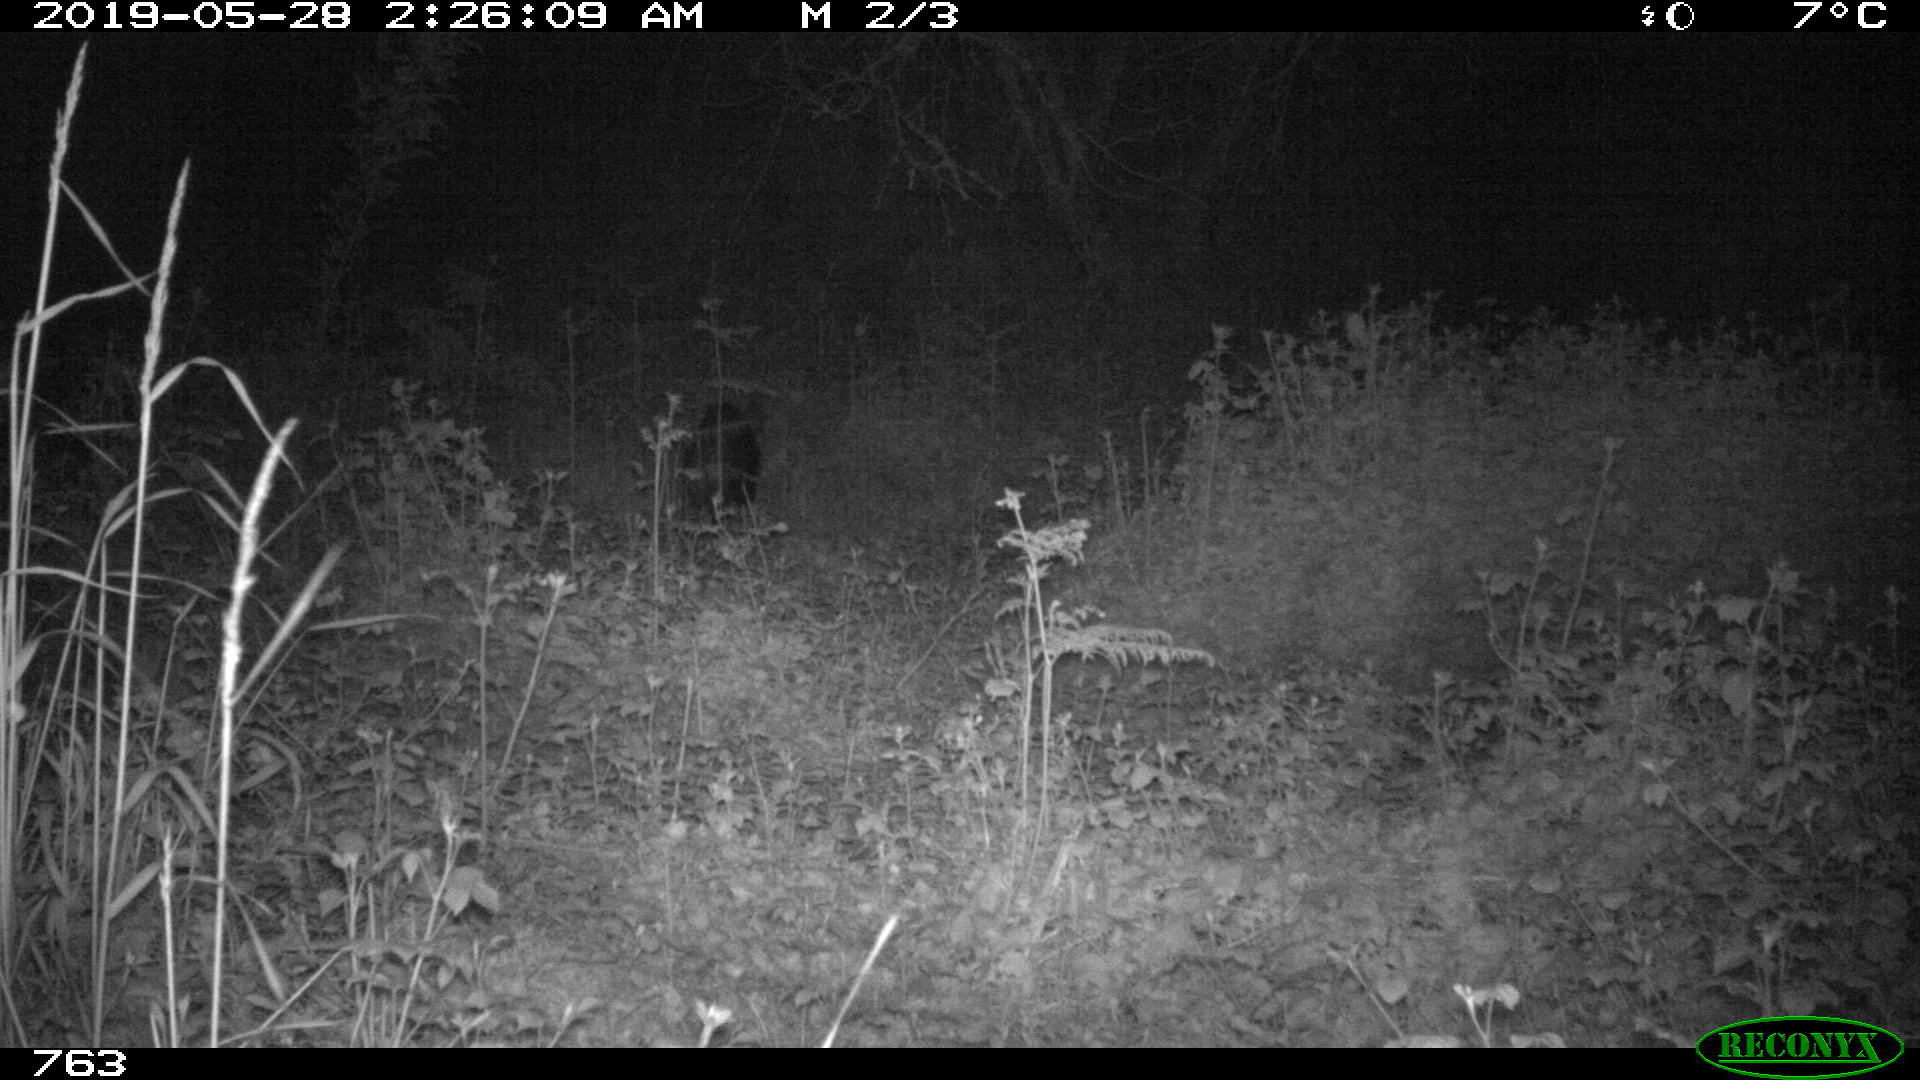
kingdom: Animalia
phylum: Chordata
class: Mammalia
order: Artiodactyla
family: Suidae
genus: Sus
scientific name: Sus scrofa
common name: Wild boar
